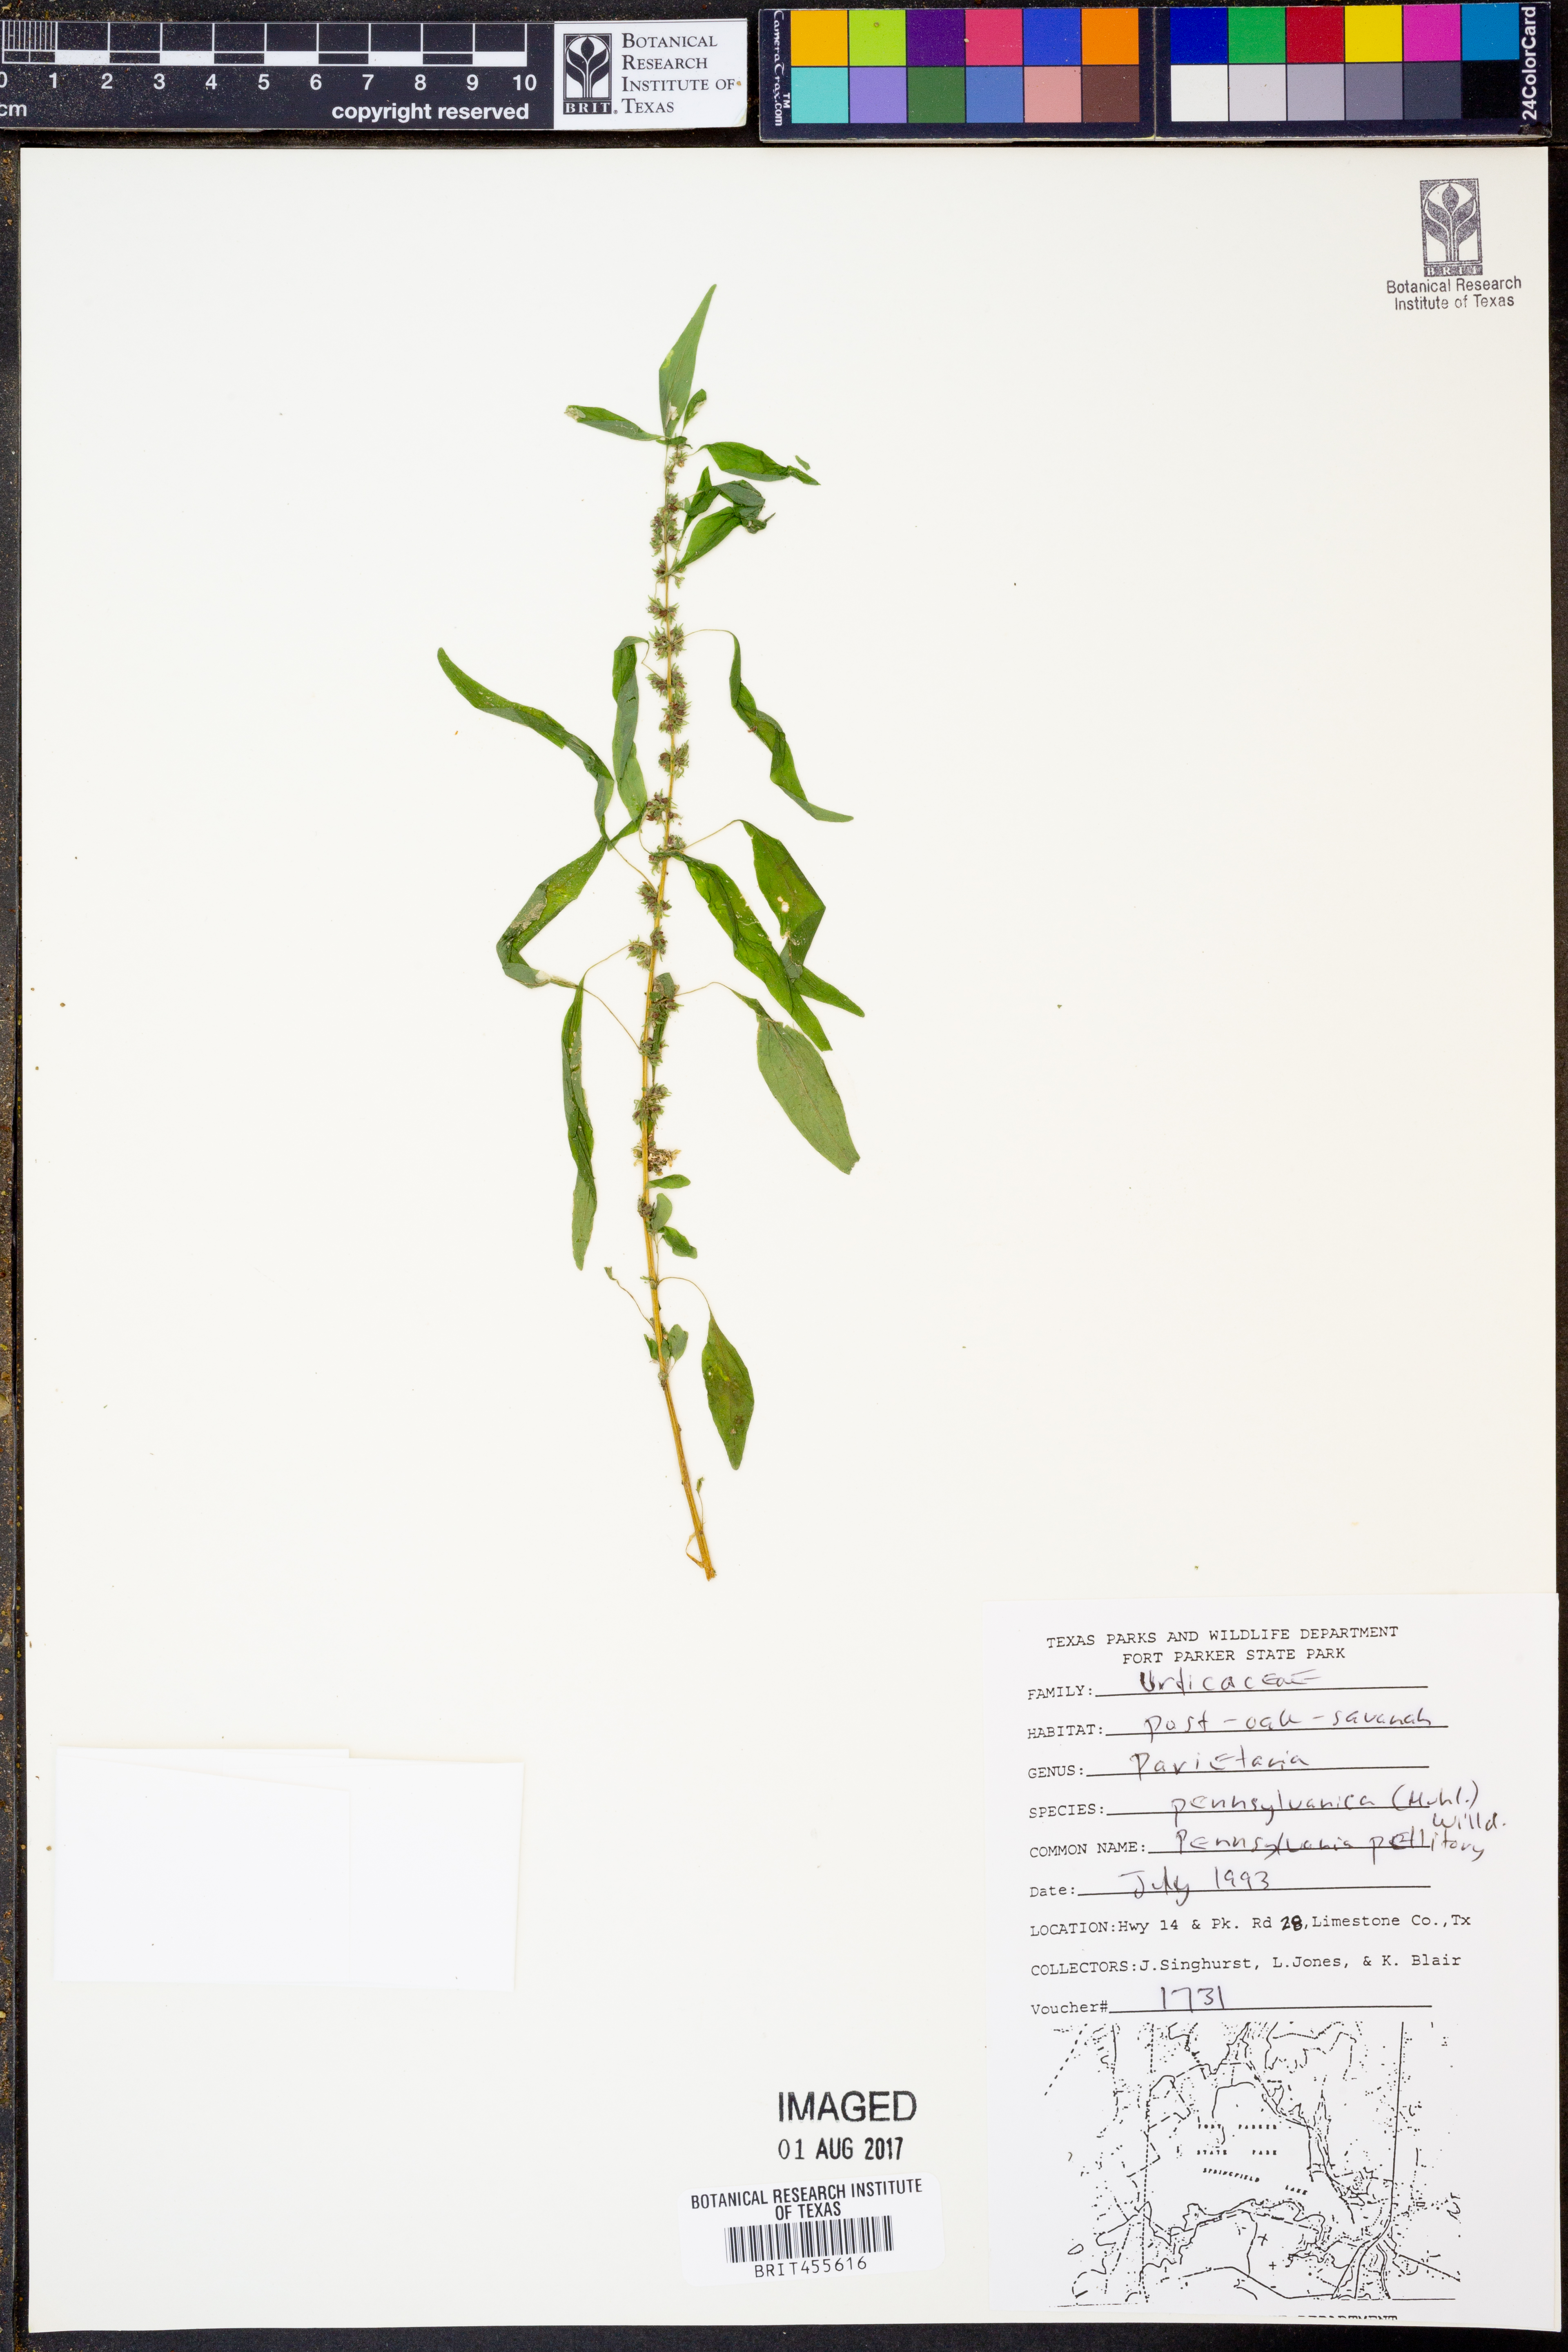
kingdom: Plantae
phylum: Tracheophyta
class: Magnoliopsida
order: Rosales
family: Urticaceae
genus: Parietaria
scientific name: Parietaria pensylvanica
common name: Pennsylvania pellitory
